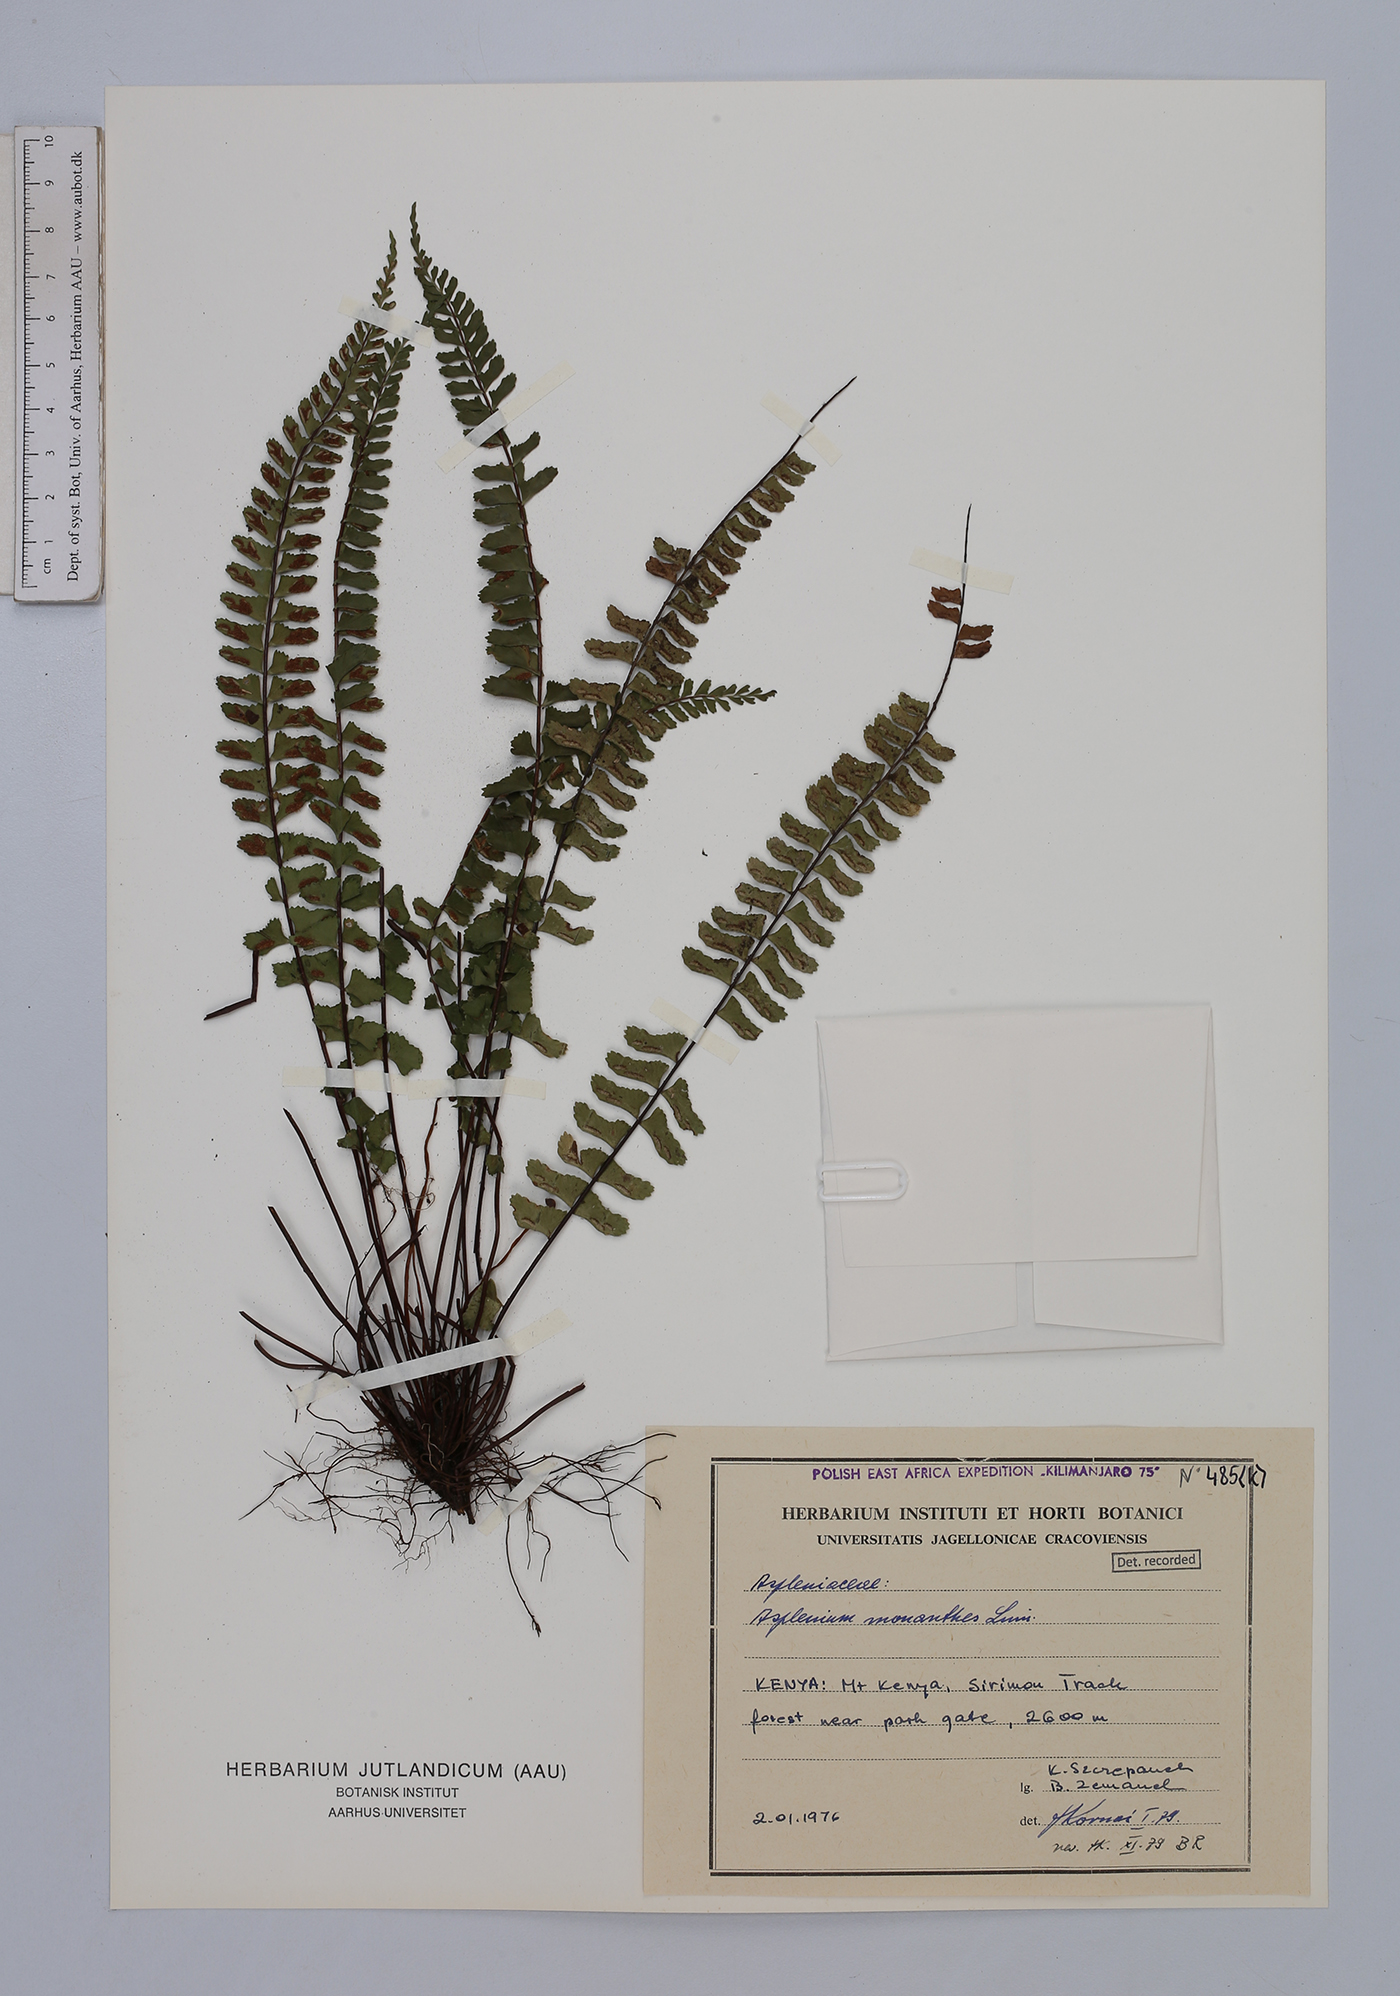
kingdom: Plantae
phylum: Tracheophyta
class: Polypodiopsida
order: Polypodiales
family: Aspleniaceae
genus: Asplenium
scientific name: Asplenium monanthes
